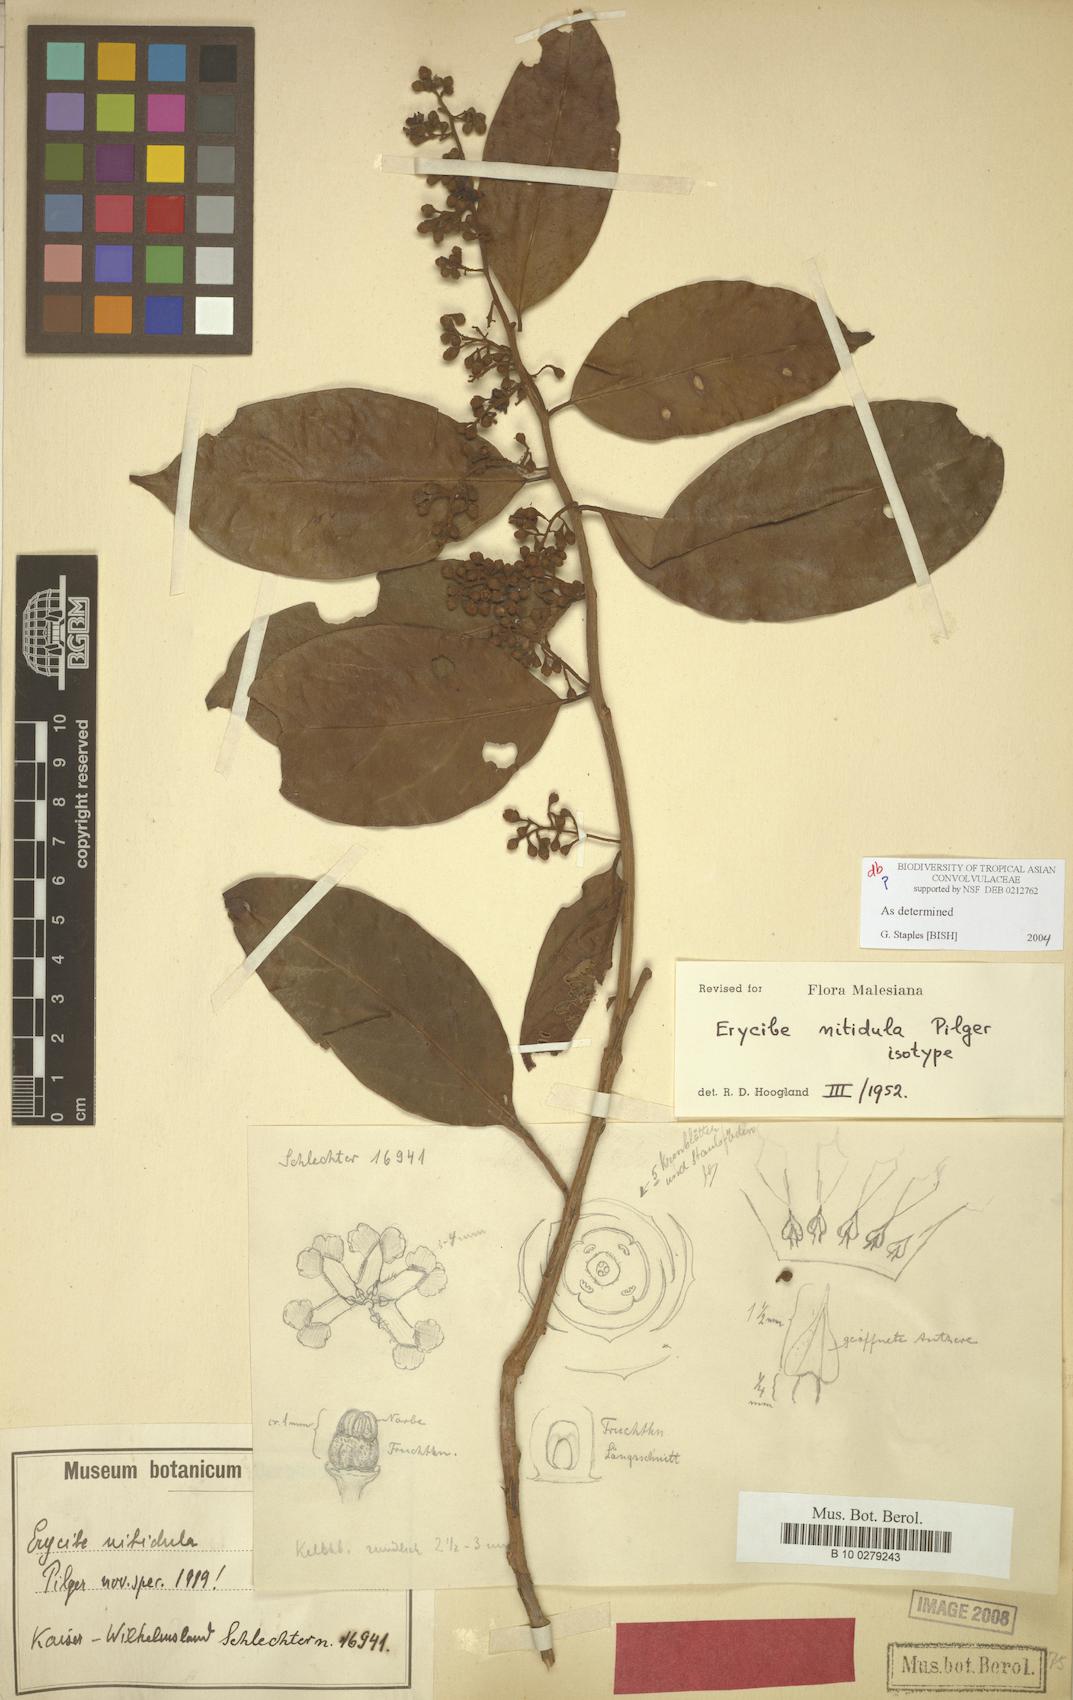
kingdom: Plantae
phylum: Tracheophyta
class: Magnoliopsida
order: Solanales
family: Convolvulaceae
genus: Erycibe
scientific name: Erycibe nitidula
